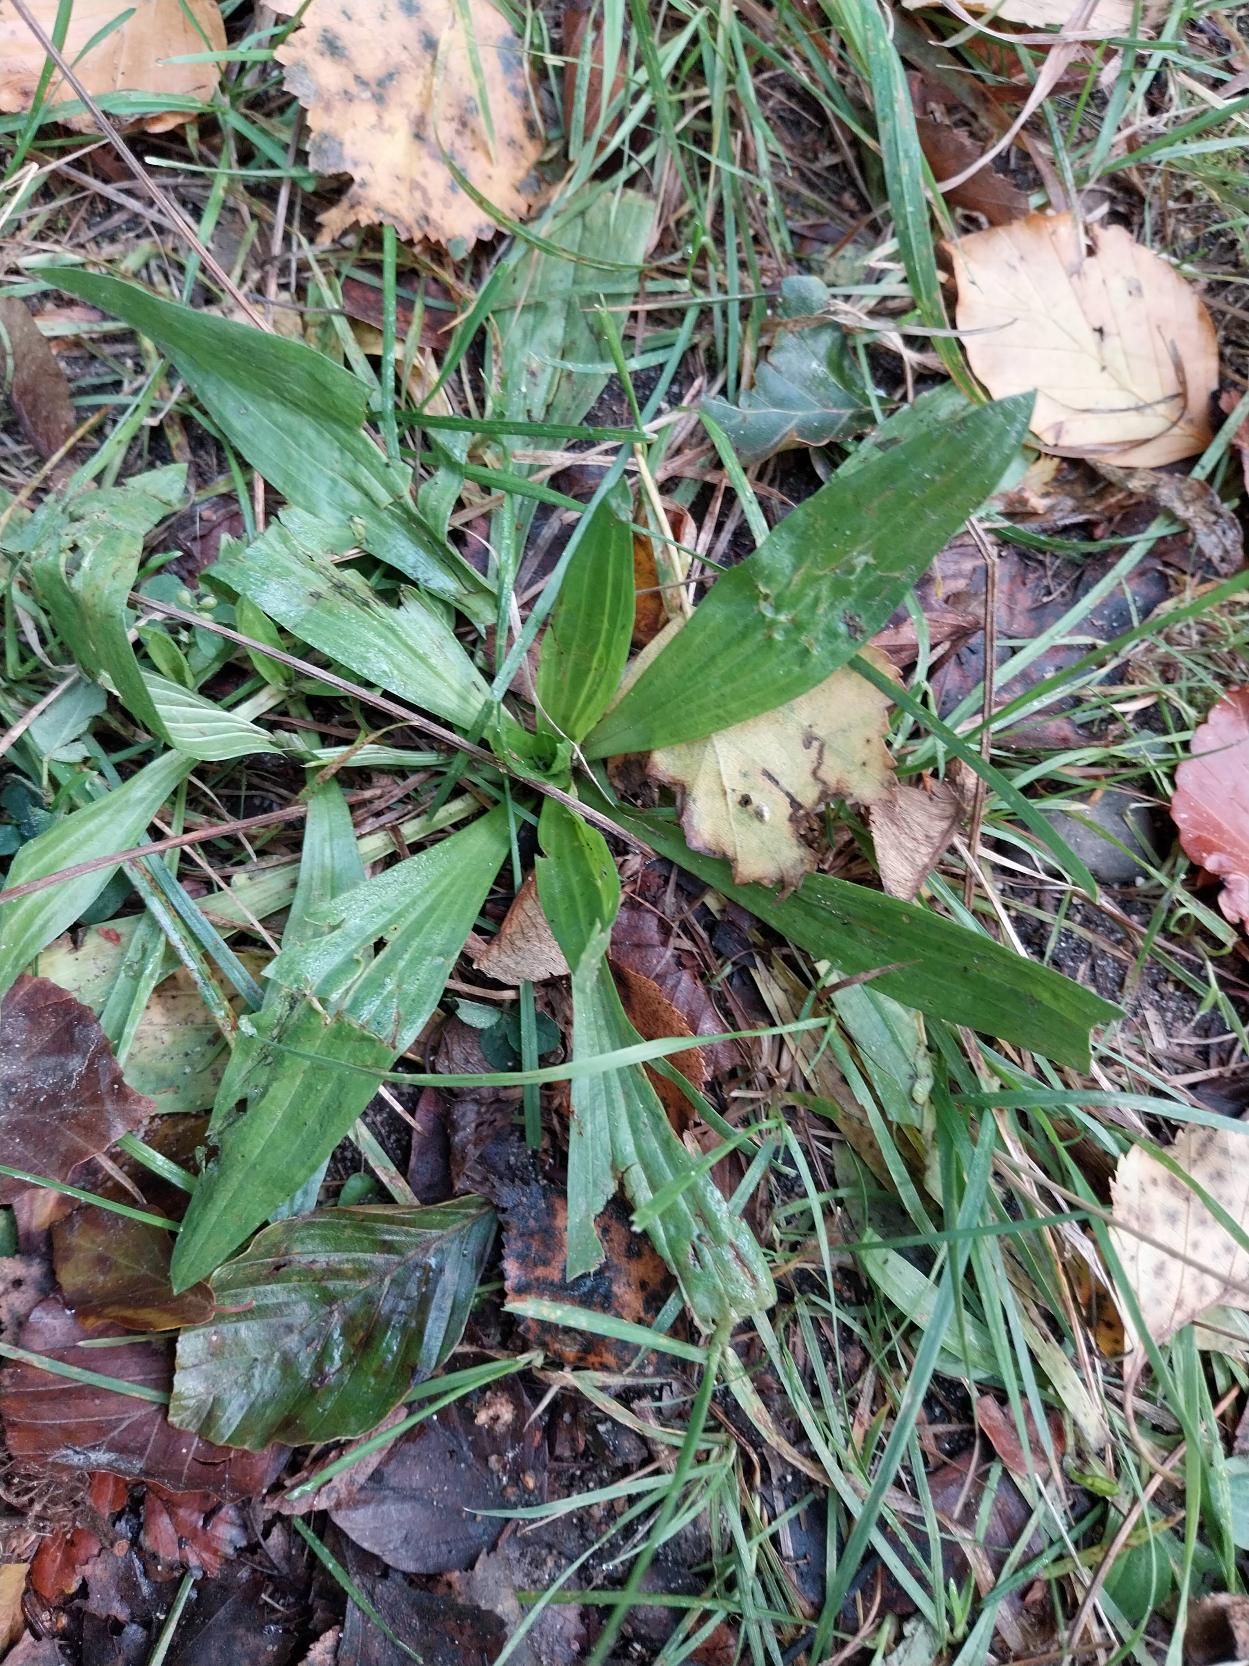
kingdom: Plantae
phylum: Tracheophyta
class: Magnoliopsida
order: Lamiales
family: Plantaginaceae
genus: Plantago
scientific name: Plantago lanceolata
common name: Lancet-vejbred
